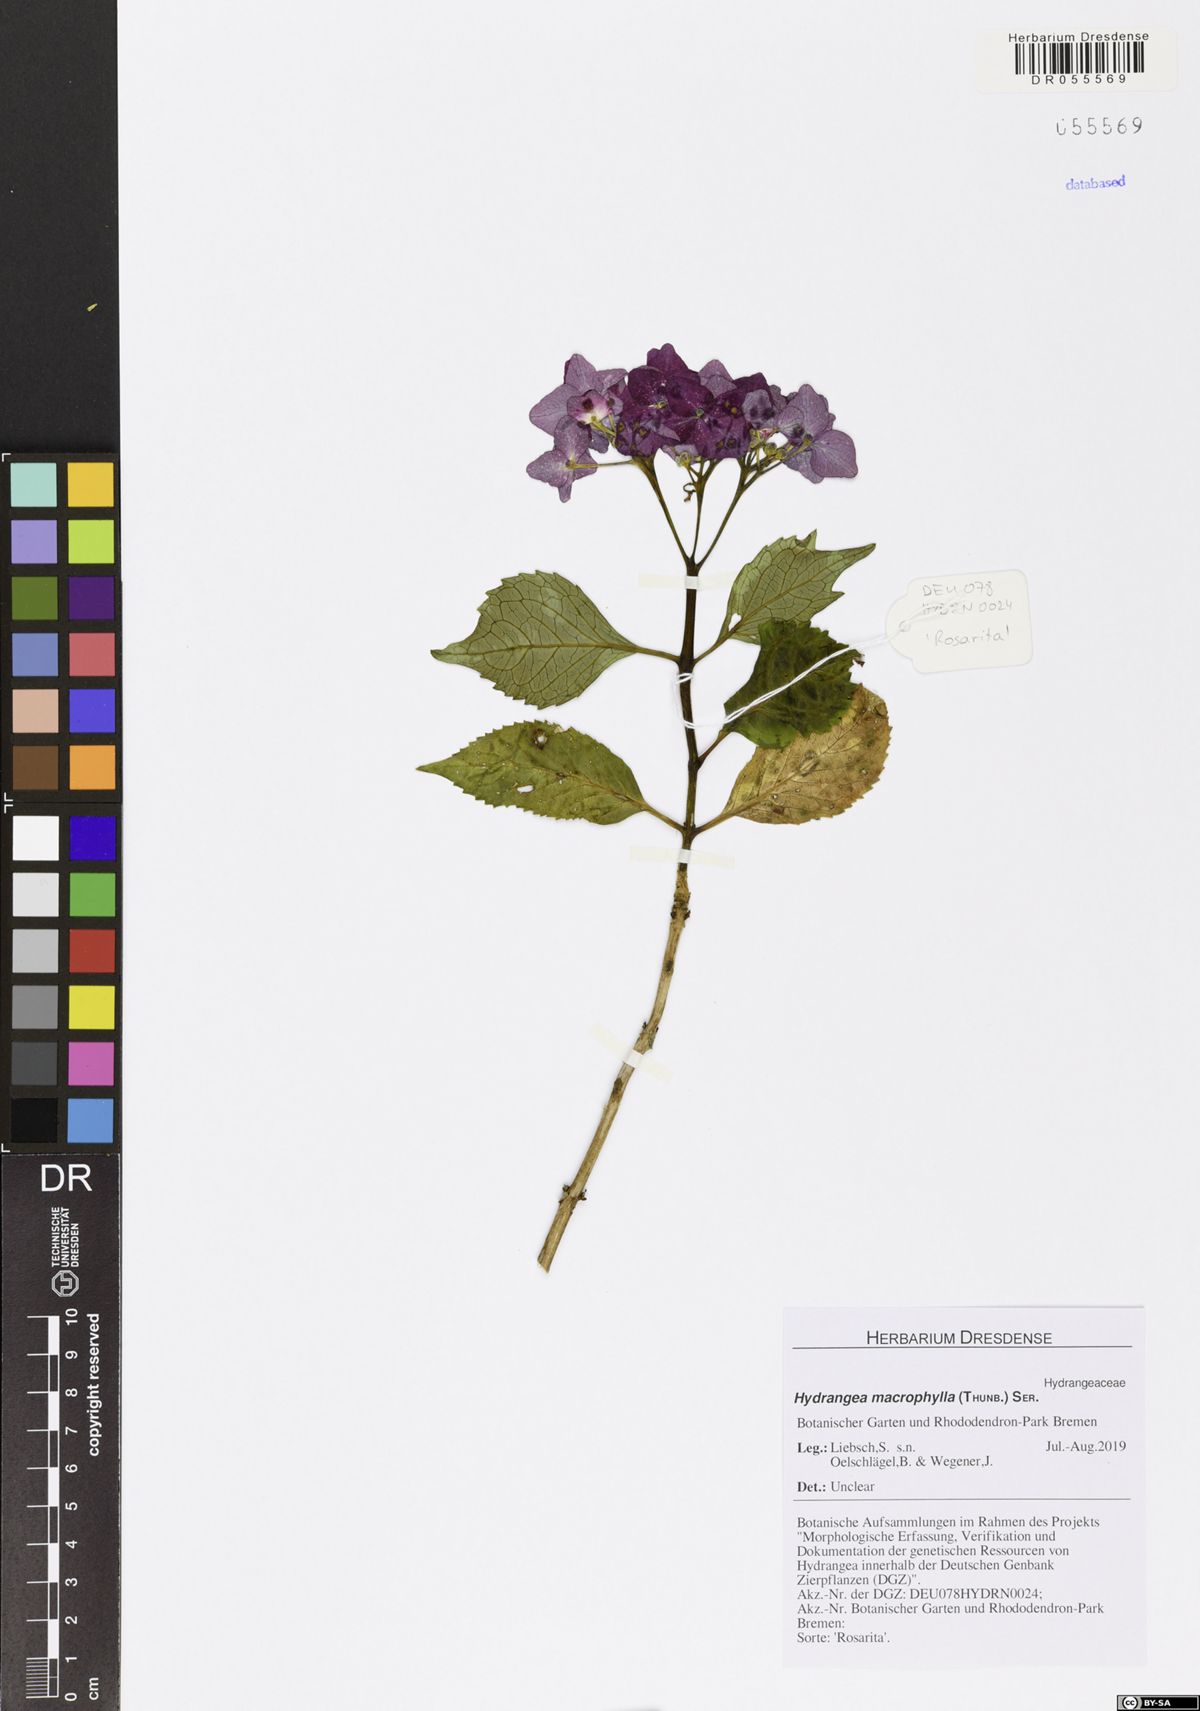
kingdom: Plantae
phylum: Tracheophyta
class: Magnoliopsida
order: Cornales
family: Hydrangeaceae
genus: Hydrangea
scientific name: Hydrangea macrophylla
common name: Hydrangea
